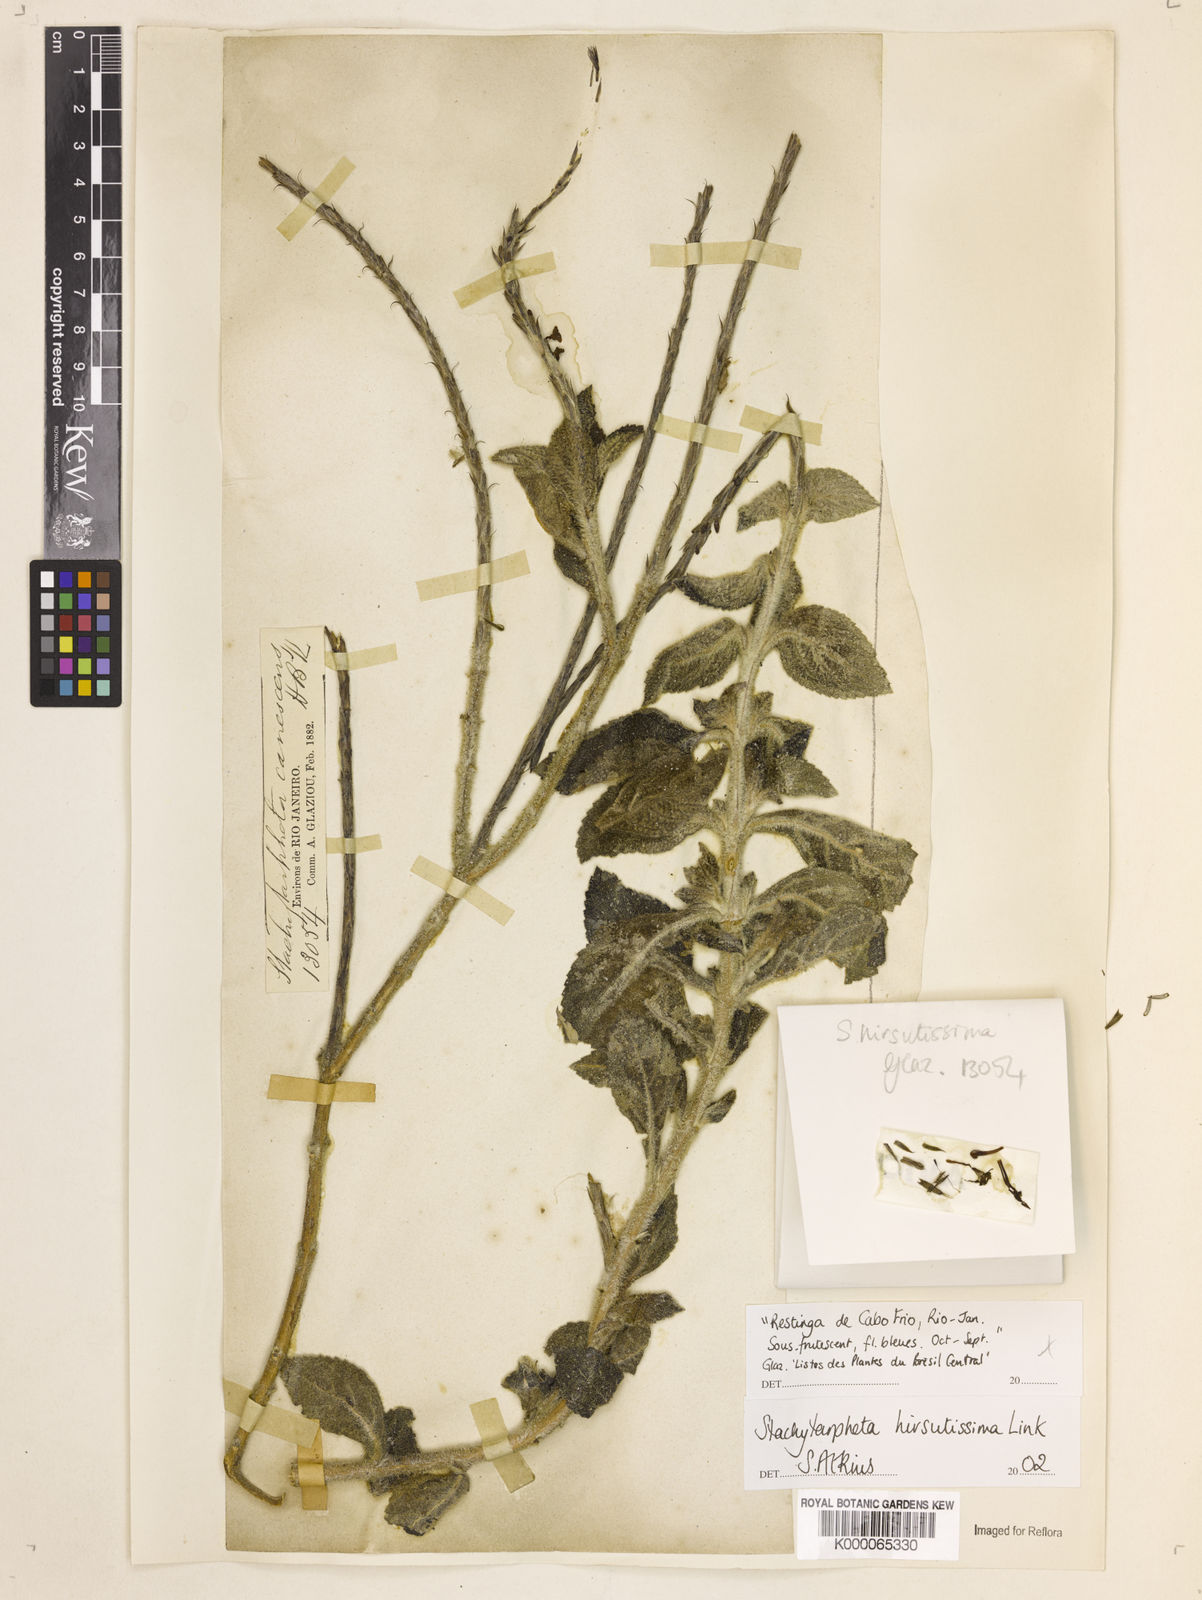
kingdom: Plantae
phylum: Tracheophyta
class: Magnoliopsida
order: Lamiales
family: Verbenaceae
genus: Stachytarpheta
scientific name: Stachytarpheta hirsutissima
